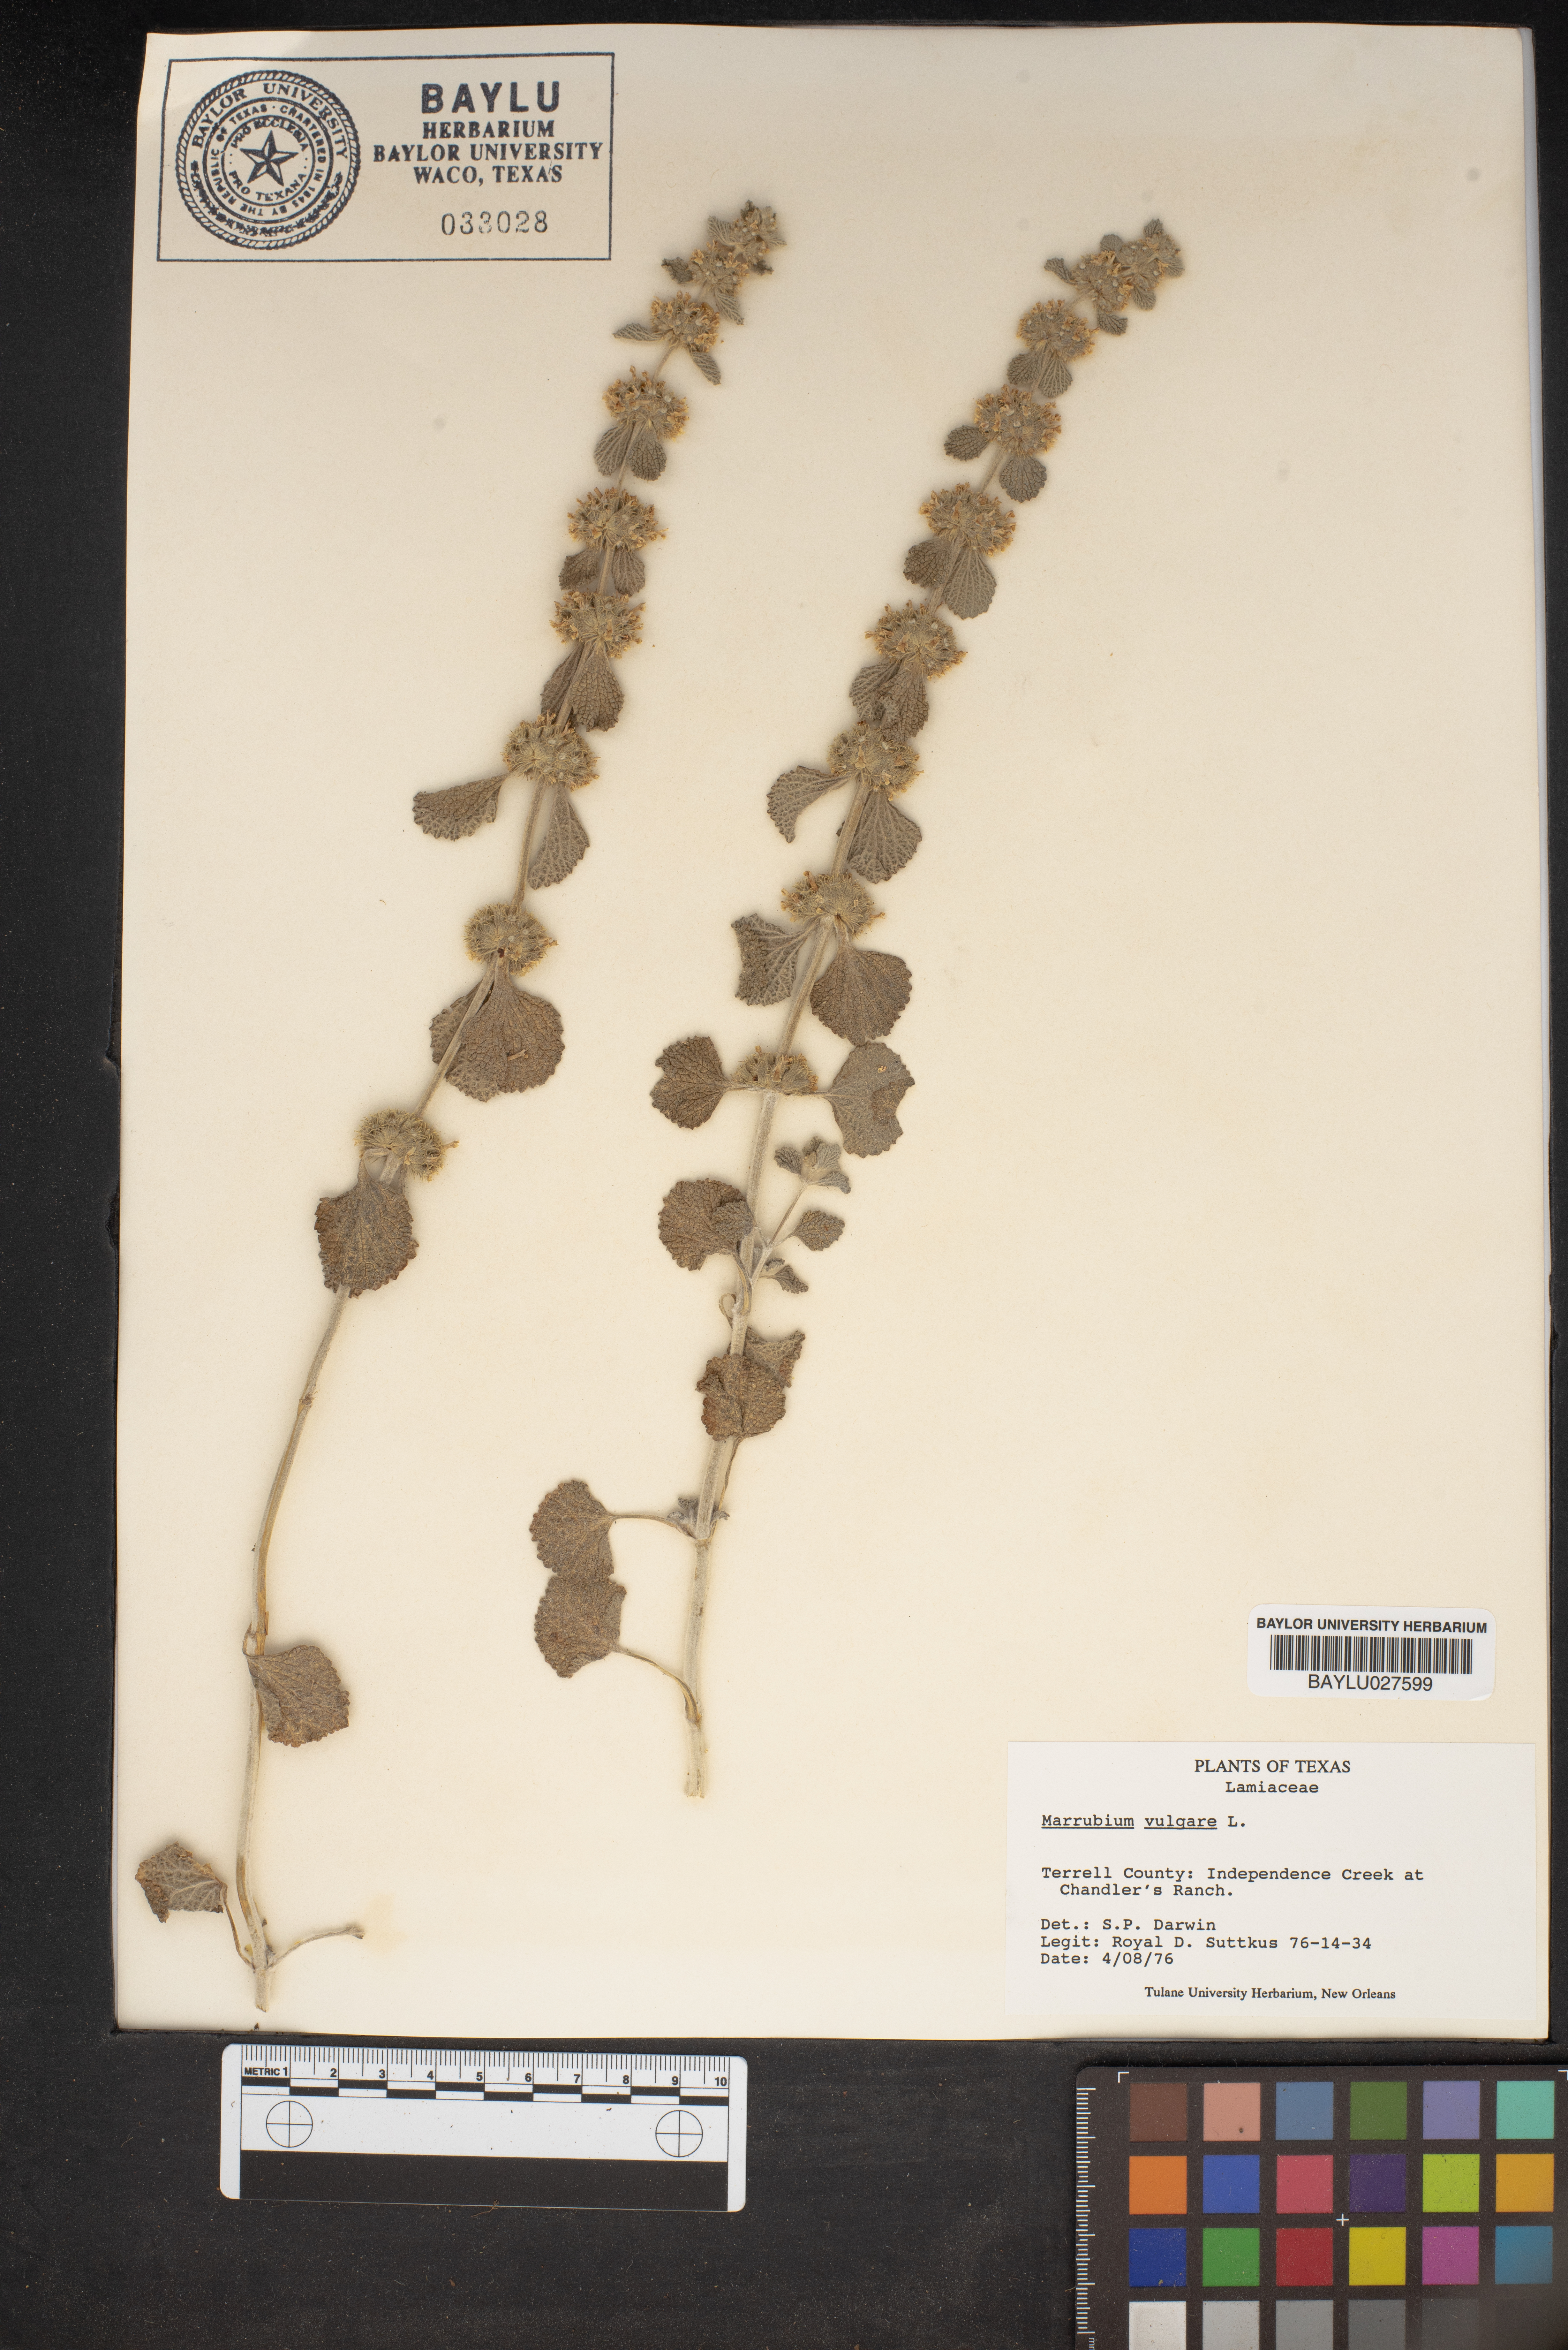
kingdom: Plantae
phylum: Tracheophyta
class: Magnoliopsida
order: Lamiales
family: Lamiaceae
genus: Marrubium
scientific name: Marrubium vulgare
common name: Horehound
